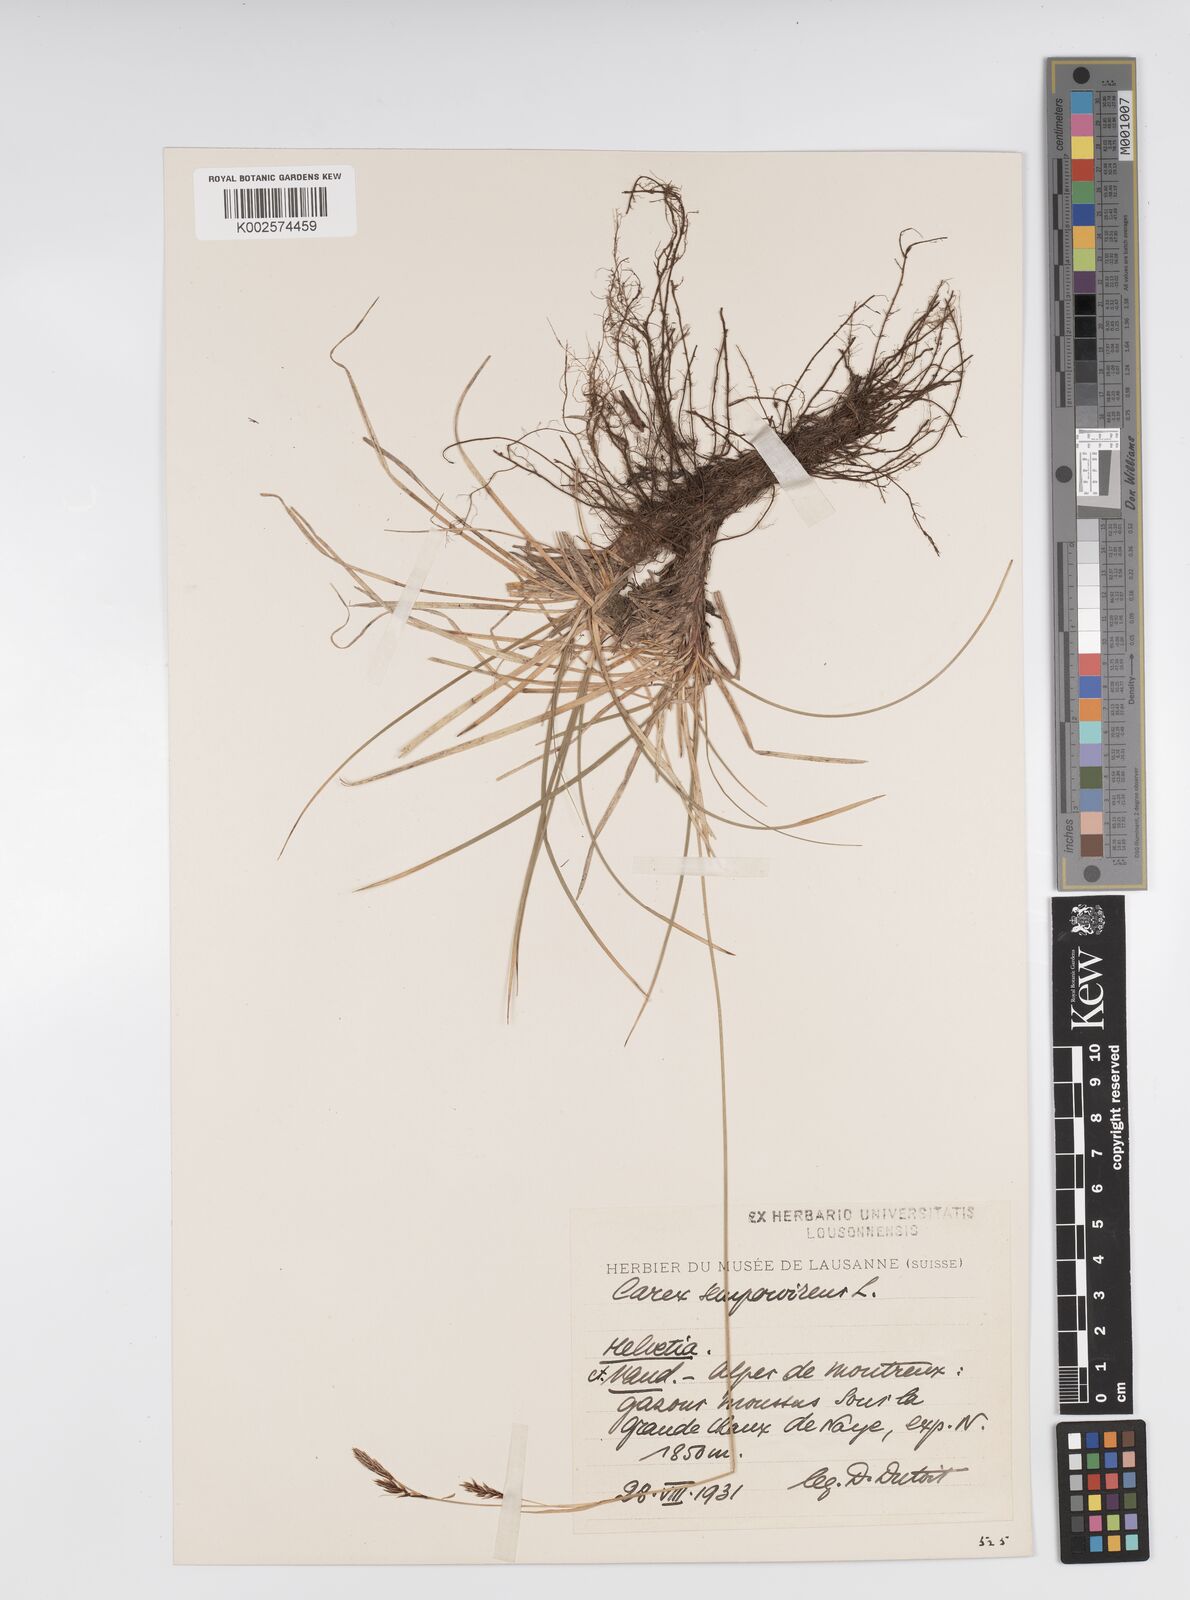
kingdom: Plantae
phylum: Tracheophyta
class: Liliopsida
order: Poales
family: Cyperaceae
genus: Carex
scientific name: Carex sempervirens
